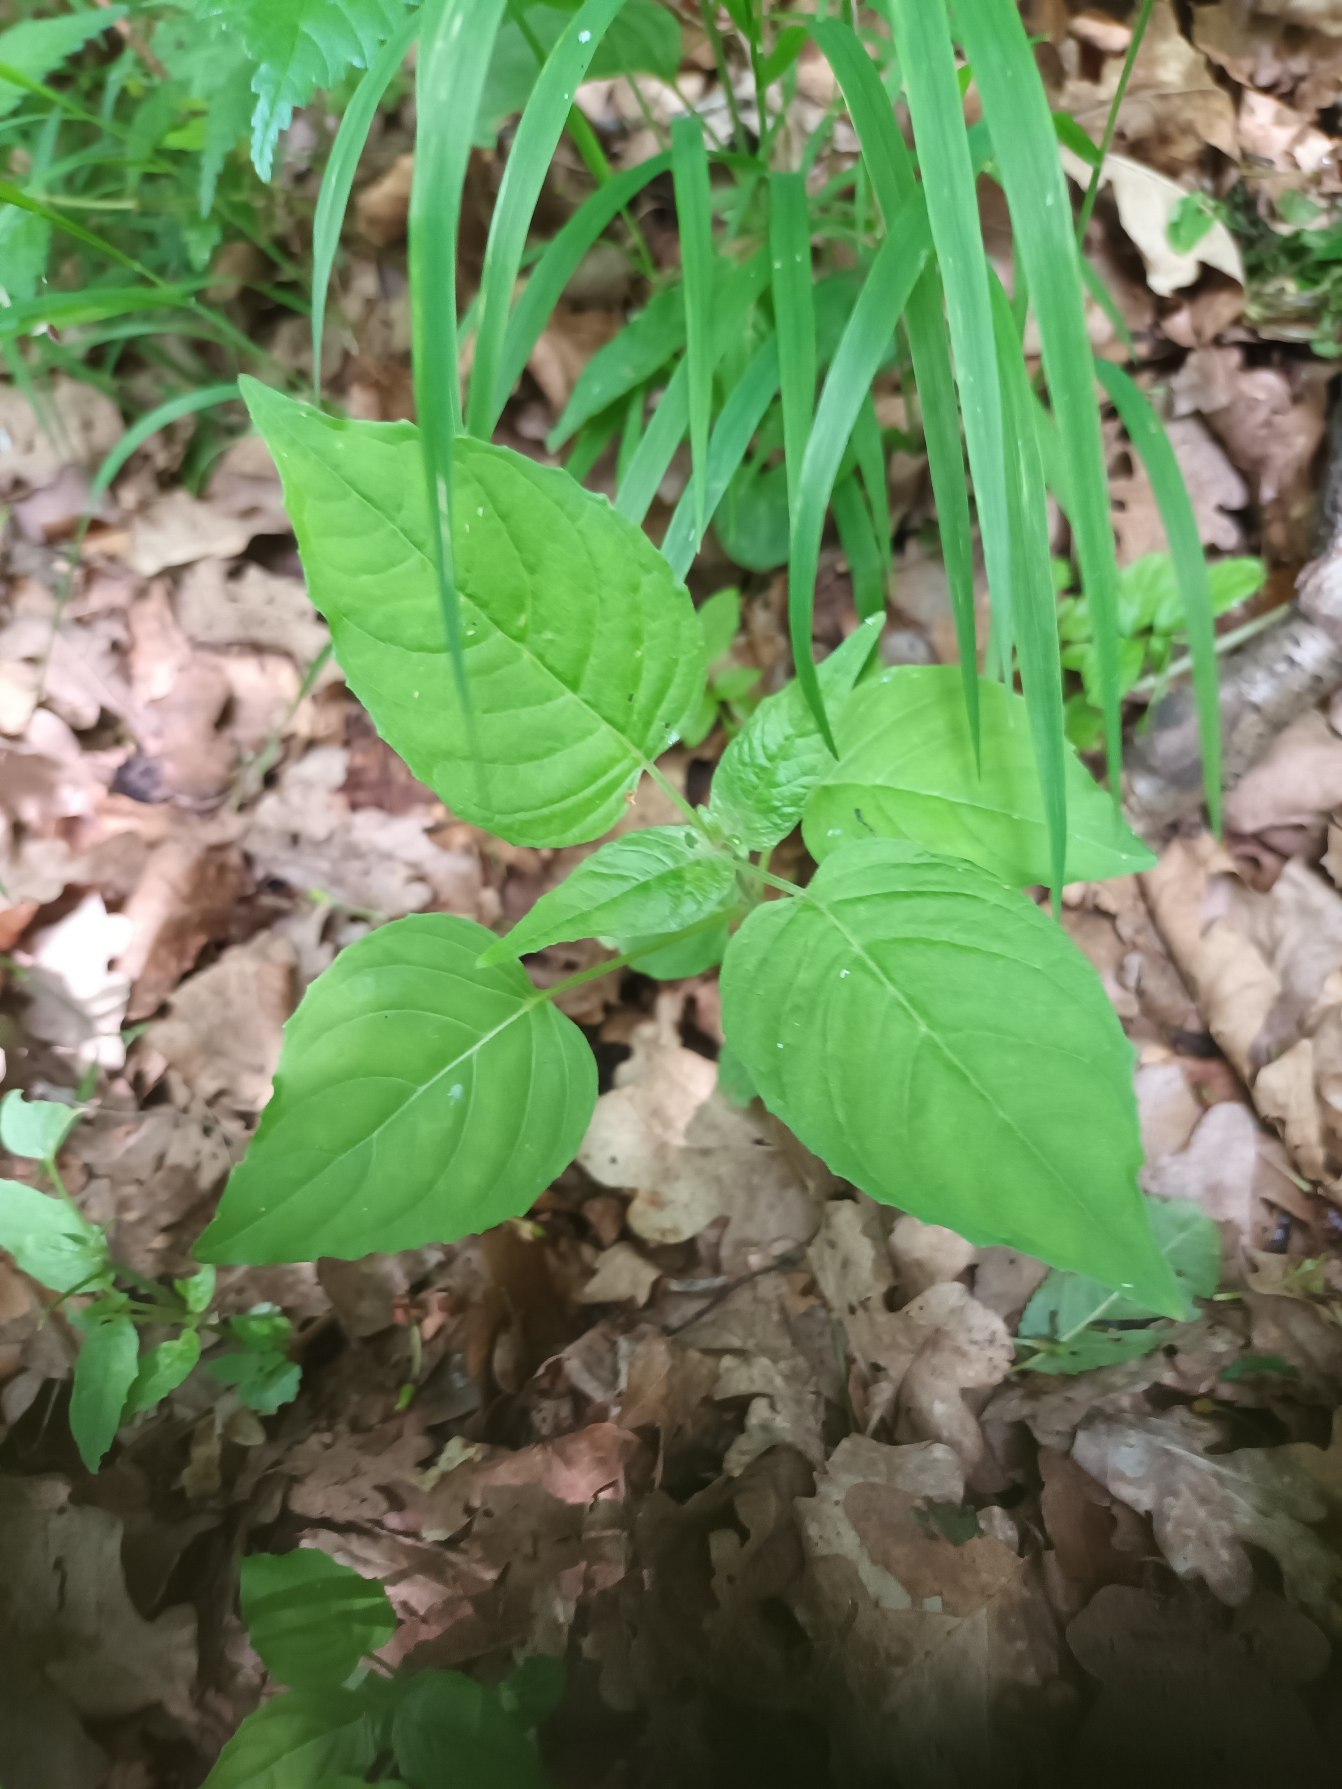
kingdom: Plantae
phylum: Tracheophyta
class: Magnoliopsida
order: Myrtales
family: Onagraceae
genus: Circaea
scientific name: Circaea lutetiana
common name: Dunet steffensurt
